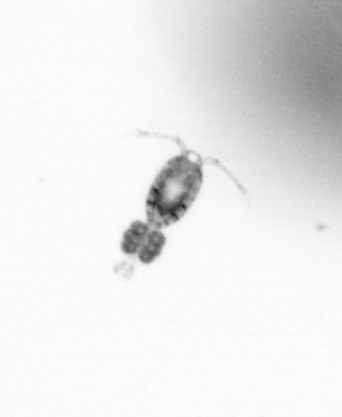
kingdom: Animalia
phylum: Arthropoda
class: Copepoda
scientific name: Copepoda
